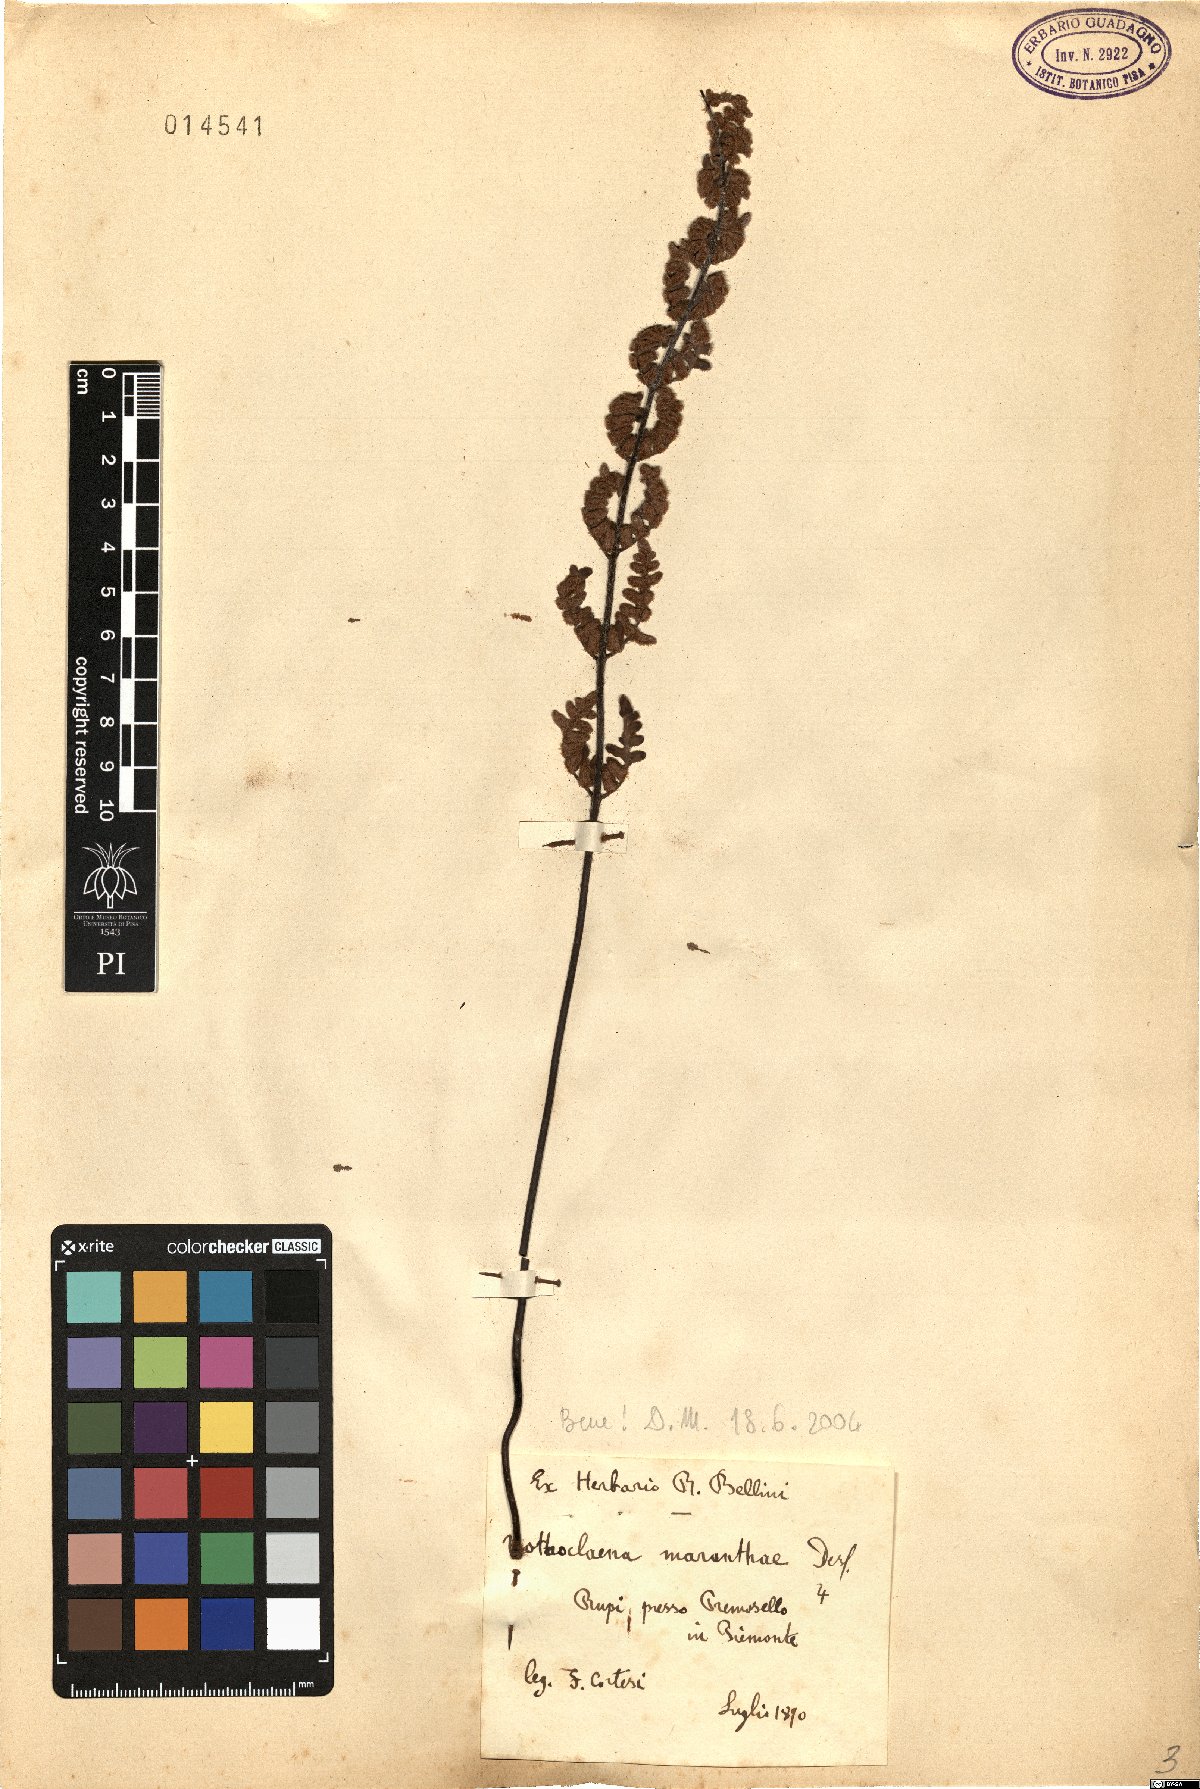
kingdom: Plantae
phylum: Tracheophyta
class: Polypodiopsida
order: Polypodiales
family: Pteridaceae
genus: Paragymnopteris
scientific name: Paragymnopteris marantae
